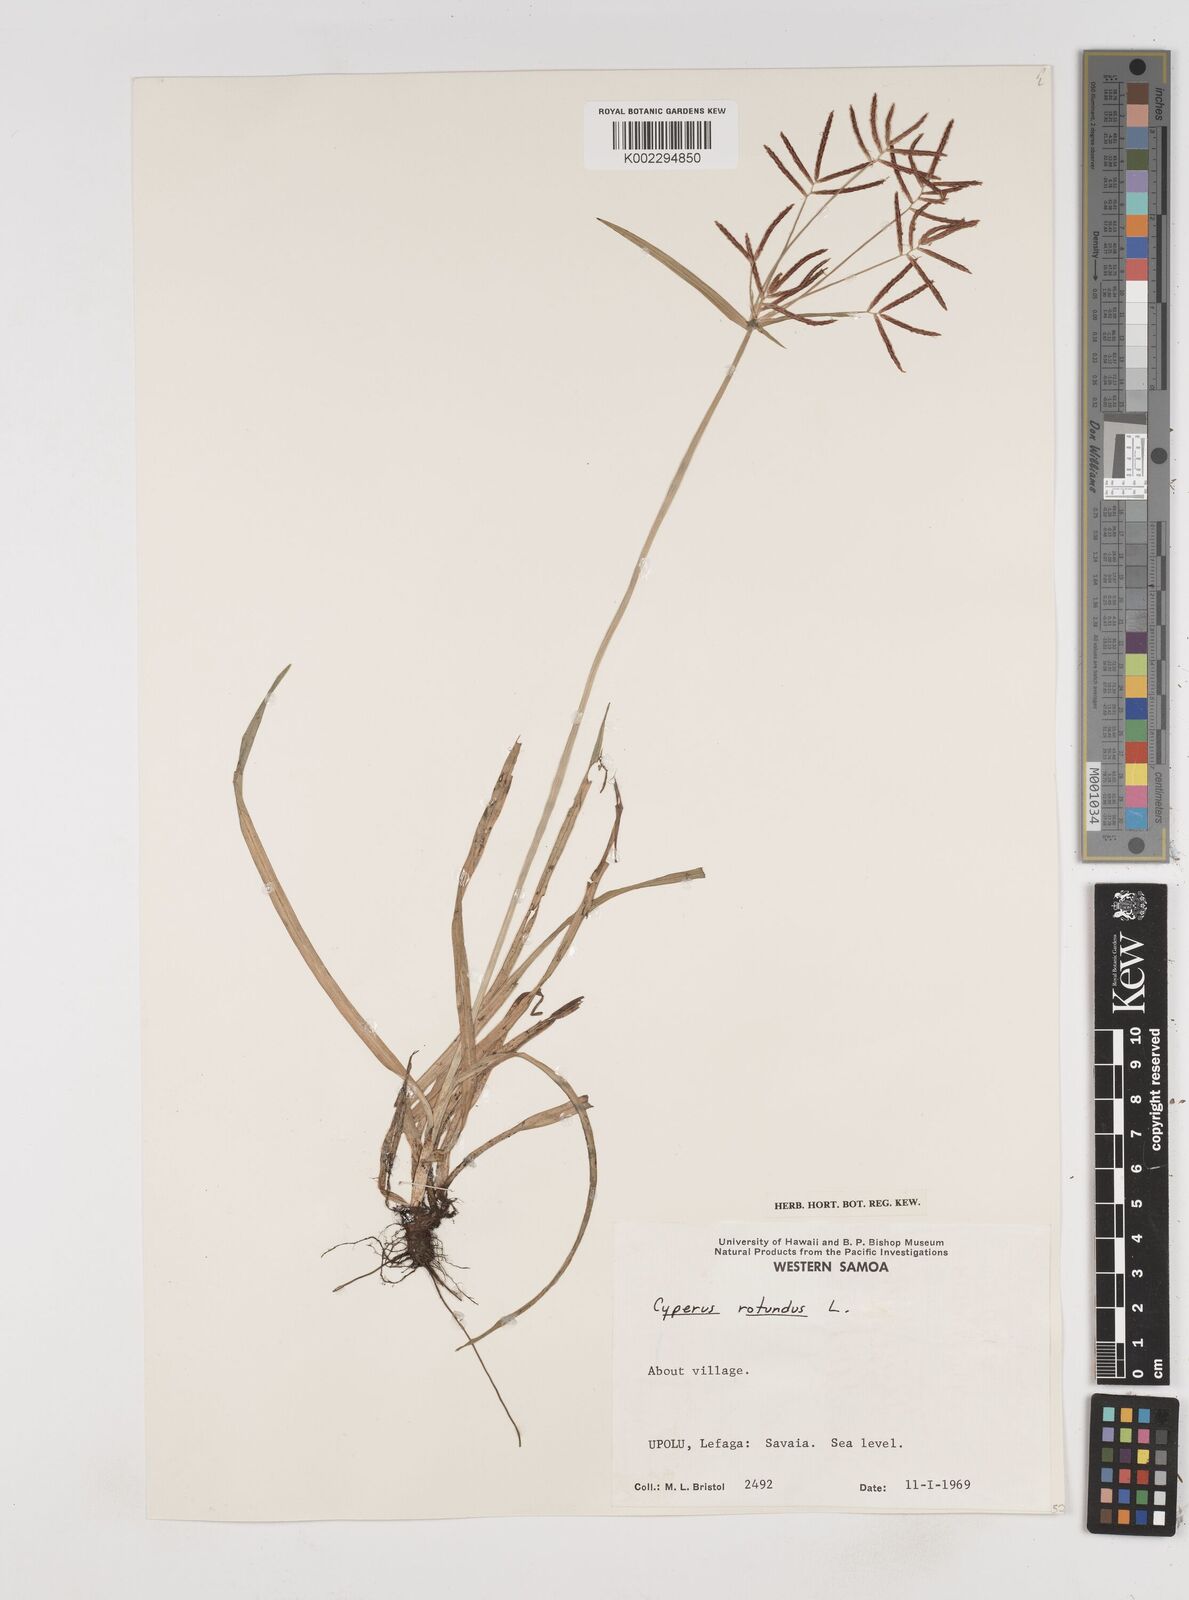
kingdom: Plantae
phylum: Tracheophyta
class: Liliopsida
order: Poales
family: Cyperaceae
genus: Cyperus
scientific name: Cyperus rotundus
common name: Nutgrass
